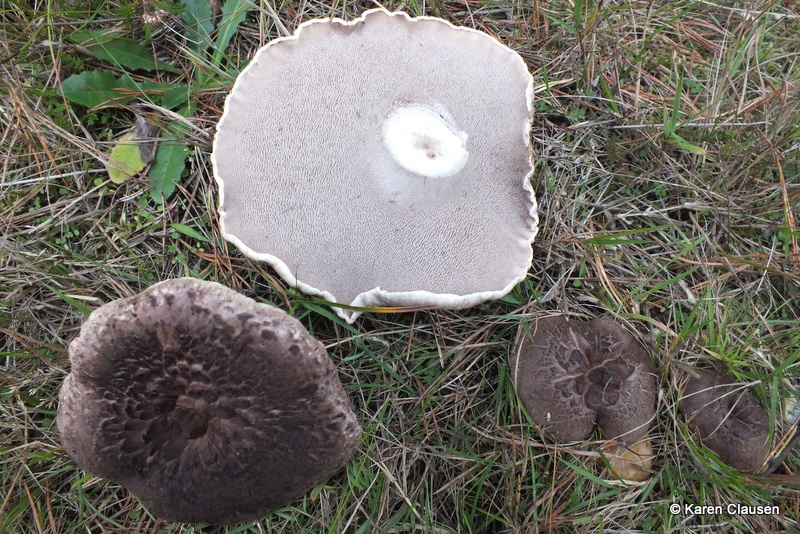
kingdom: Fungi
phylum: Basidiomycota
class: Agaricomycetes
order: Thelephorales
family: Bankeraceae
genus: Sarcodon
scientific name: Sarcodon squamosus
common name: småskællet kødpigsvamp
